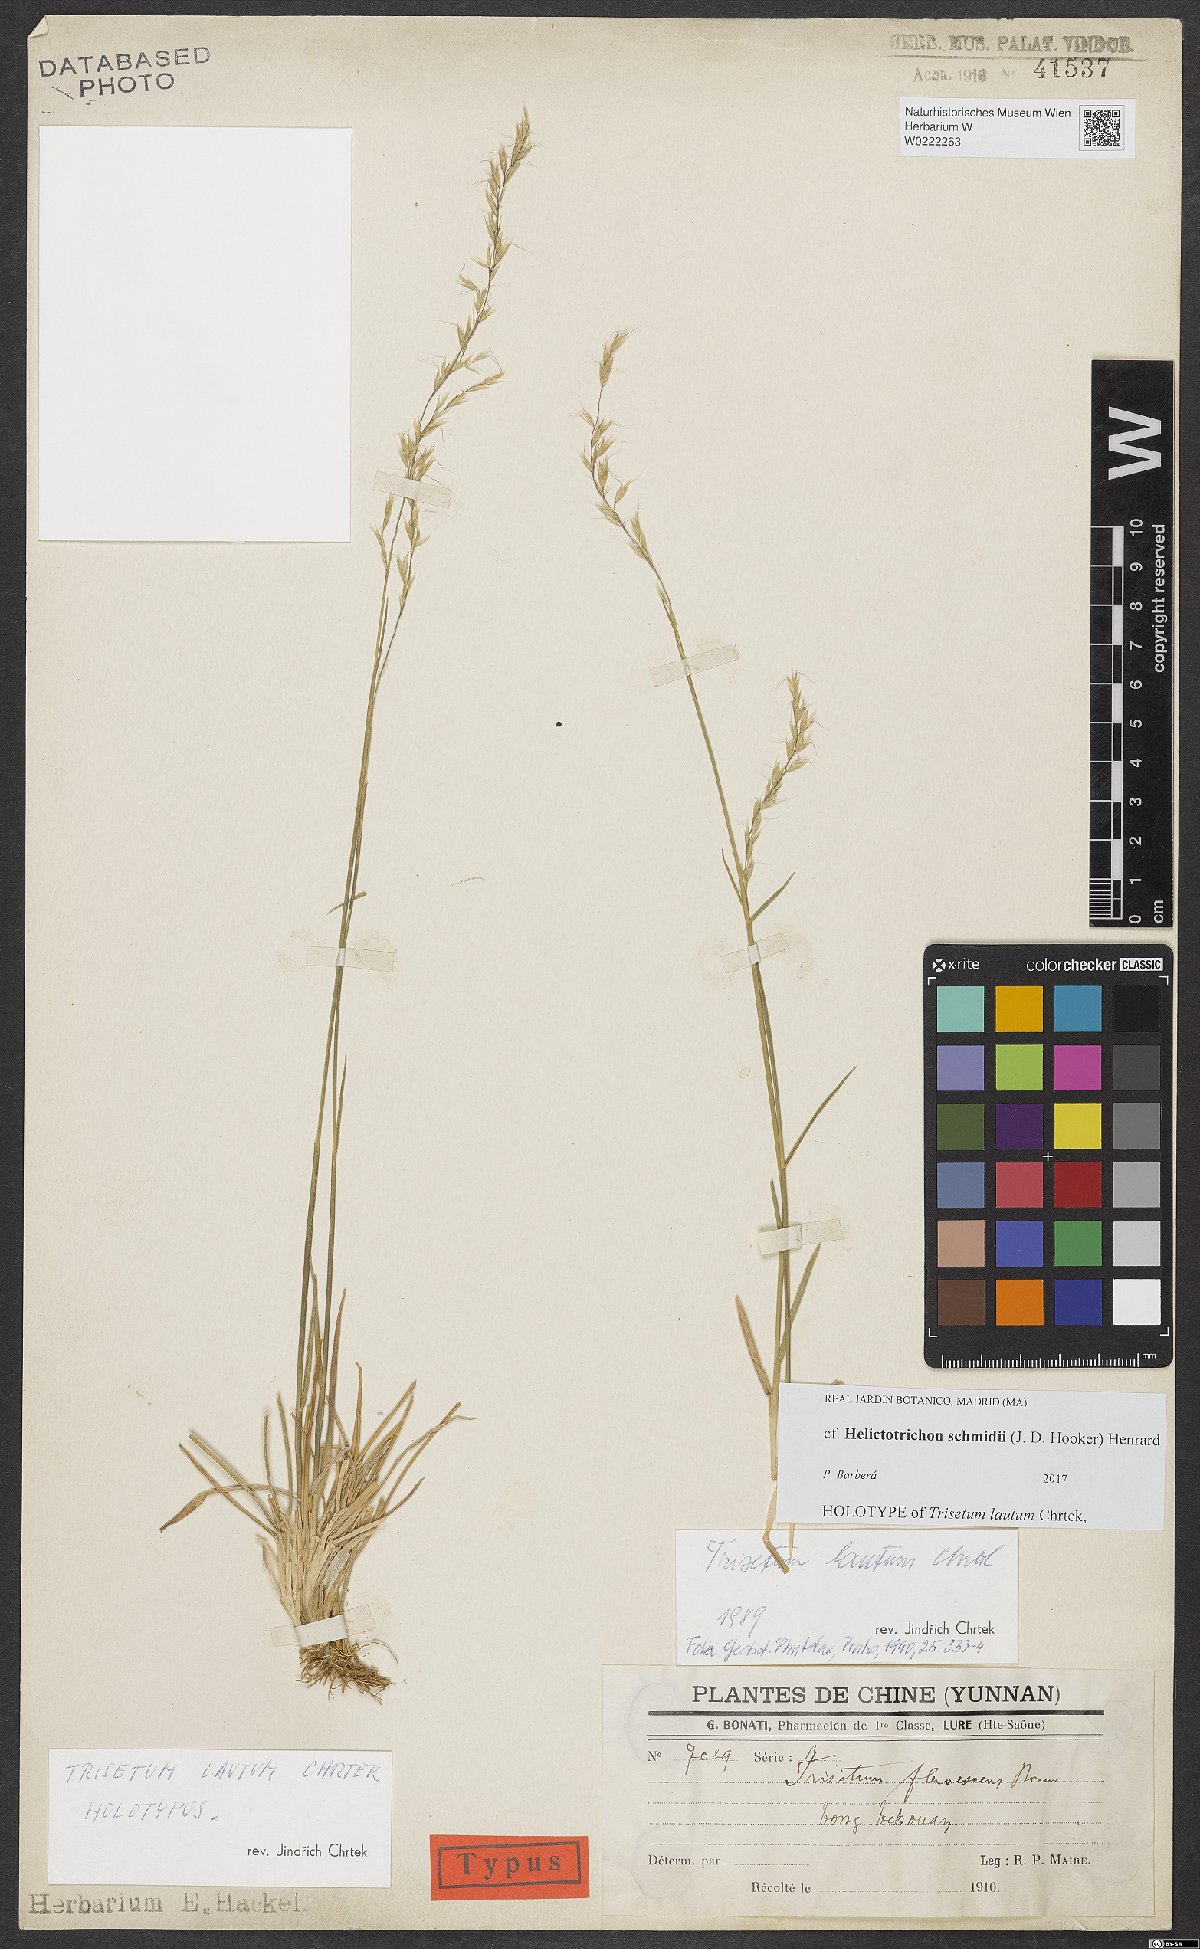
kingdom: Plantae
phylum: Tracheophyta
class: Liliopsida
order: Poales
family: Poaceae
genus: Tzveleviochloa
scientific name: Tzveleviochloa schmidii
